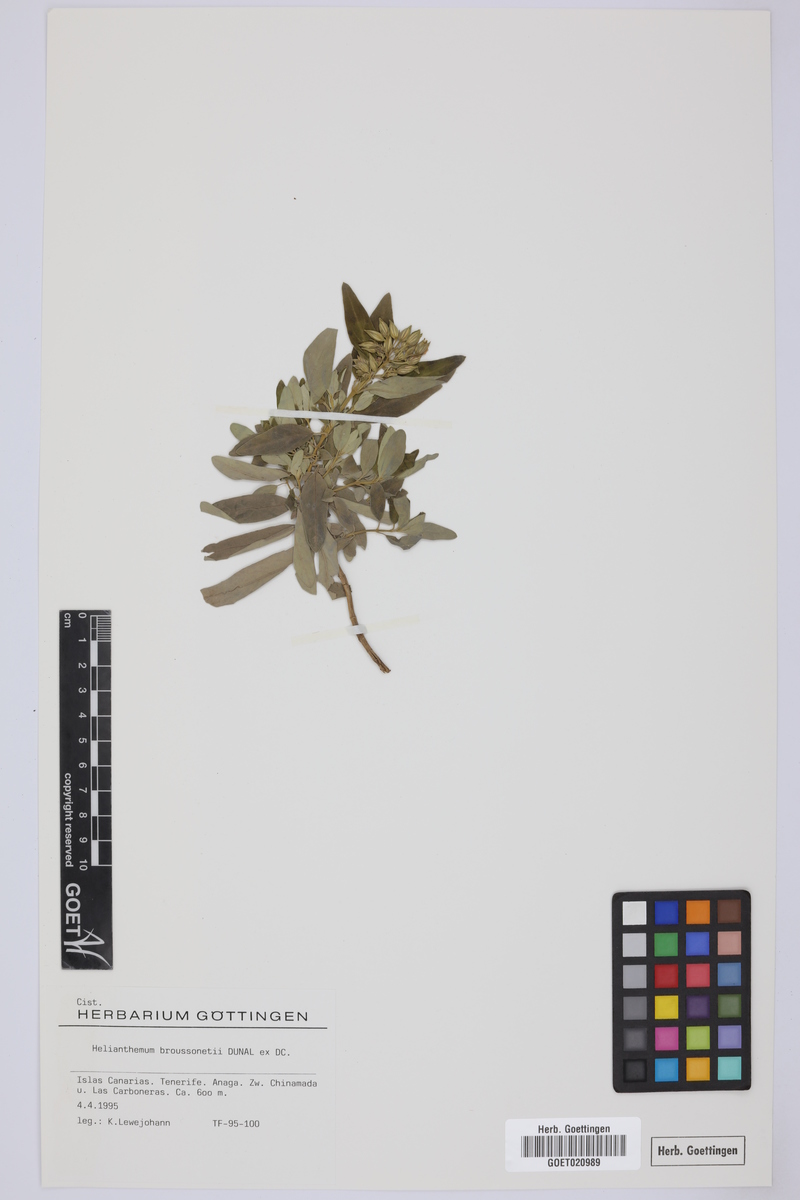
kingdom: Plantae
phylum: Tracheophyta
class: Magnoliopsida
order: Malvales
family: Cistaceae
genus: Helianthemum
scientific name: Helianthemum broussonetii
